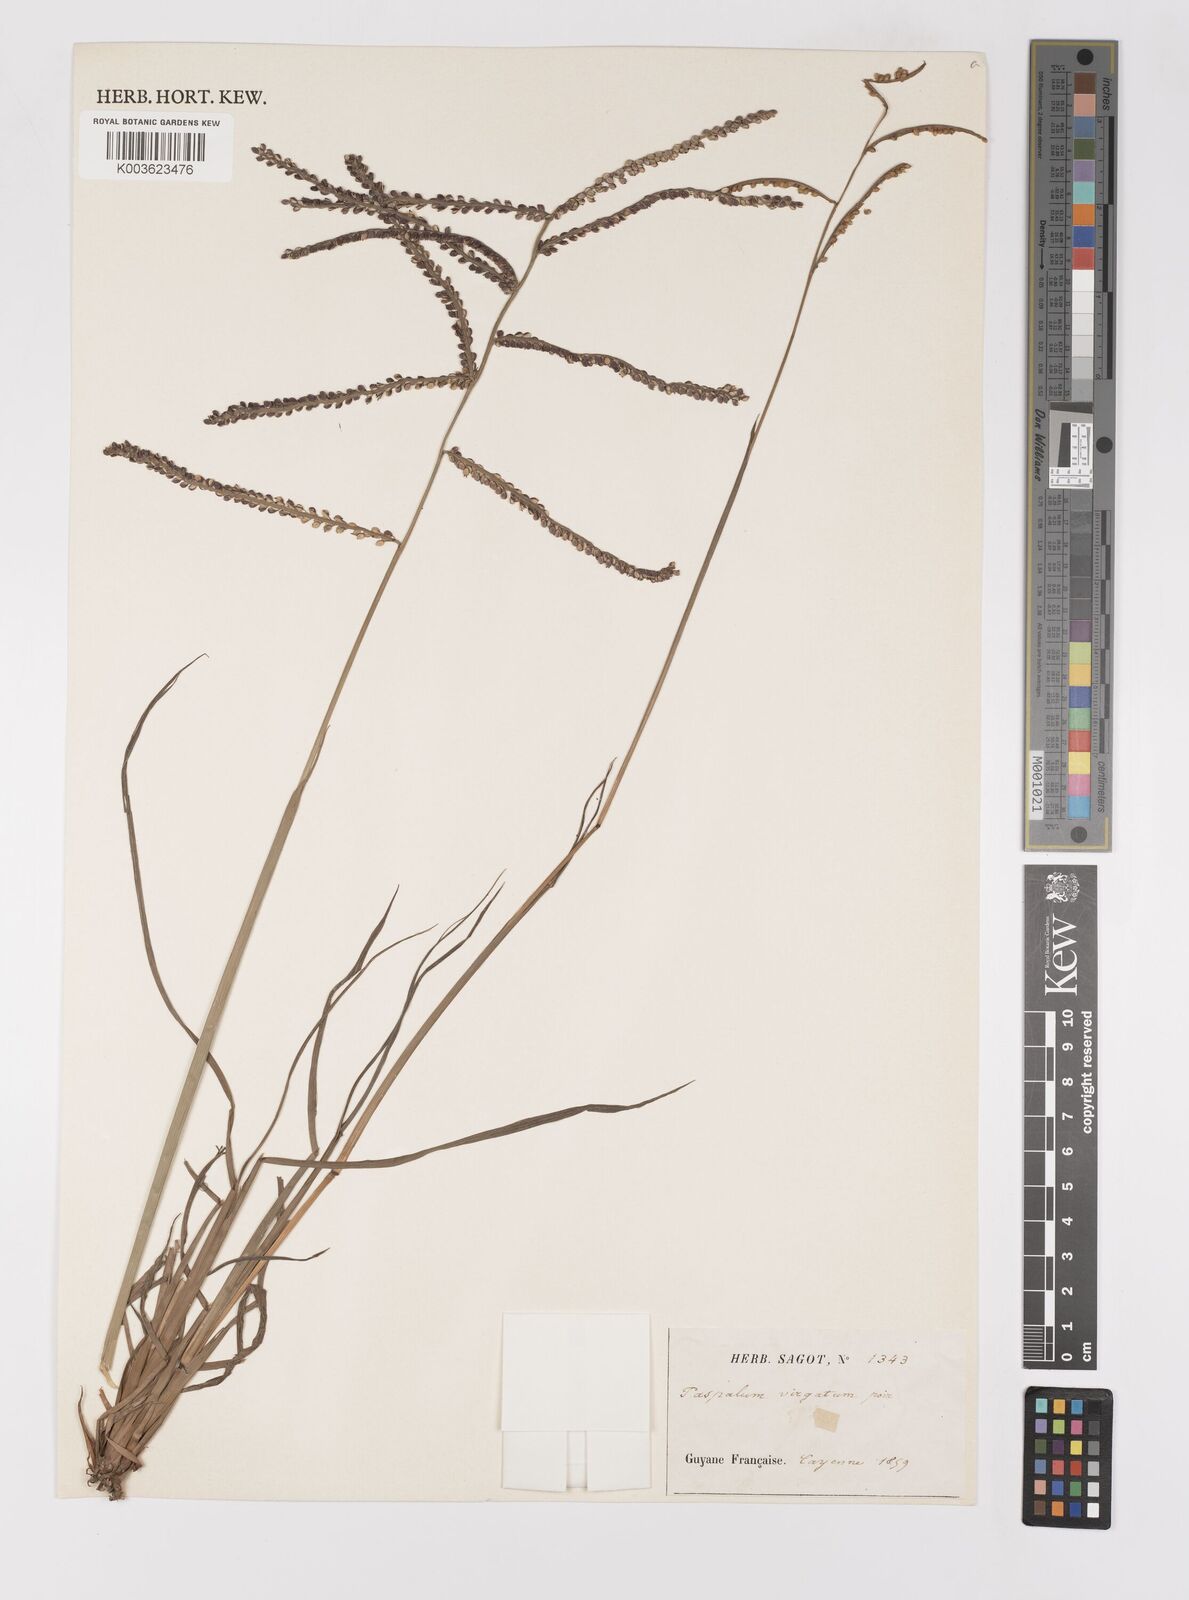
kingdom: Plantae
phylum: Tracheophyta
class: Liliopsida
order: Poales
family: Poaceae
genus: Paspalum
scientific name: Paspalum virgatum
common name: Talquezal
